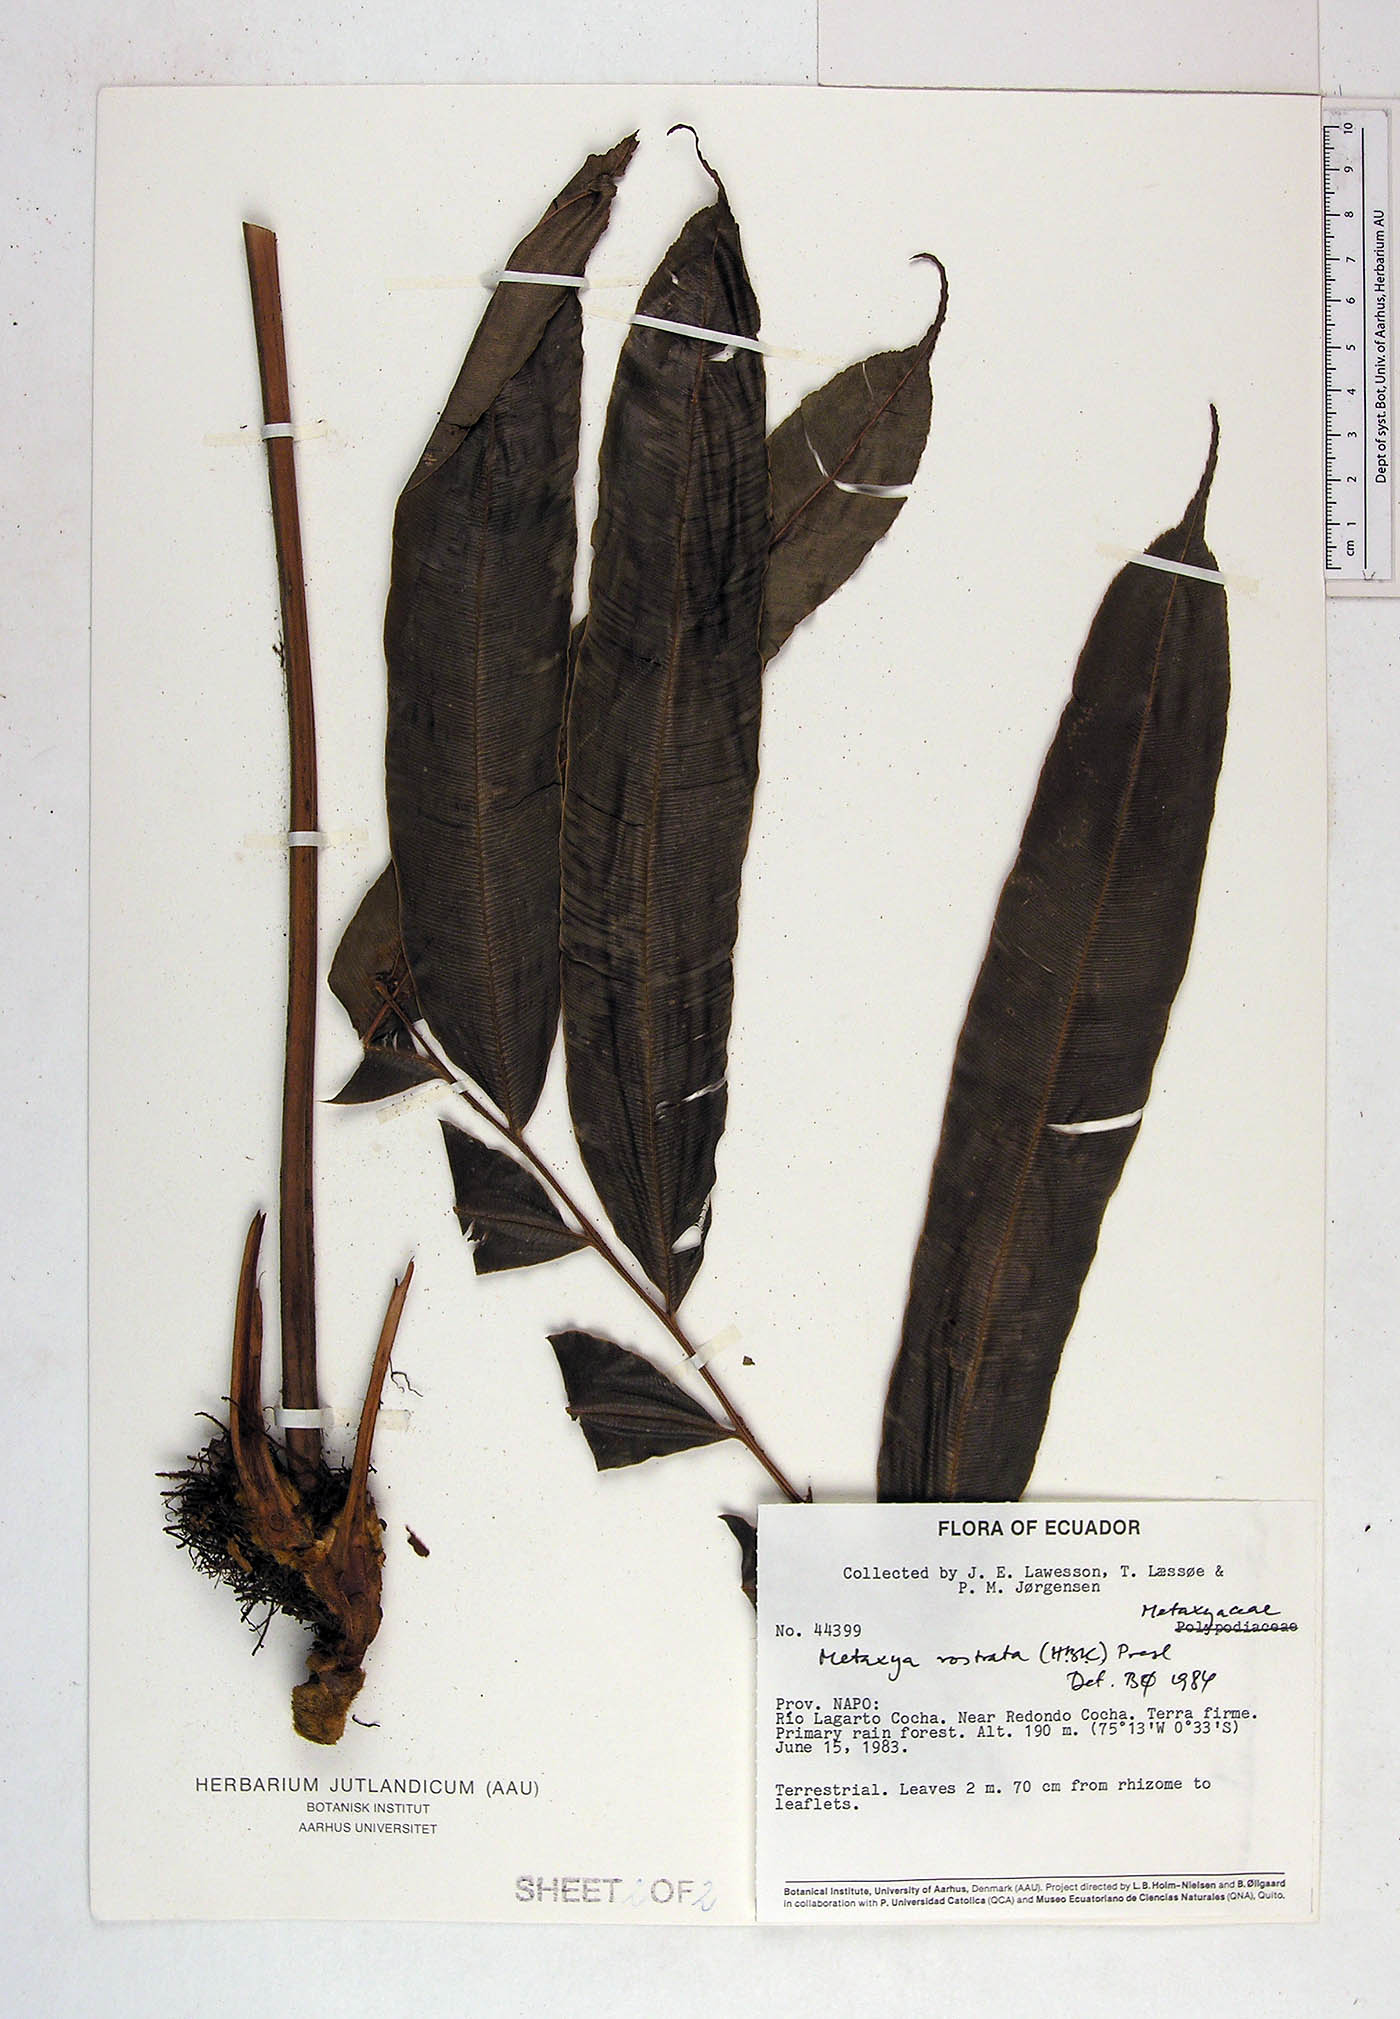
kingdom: Plantae
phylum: Tracheophyta
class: Polypodiopsida
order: Cyatheales
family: Metaxyaceae
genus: Metaxya
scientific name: Metaxya parkeri
